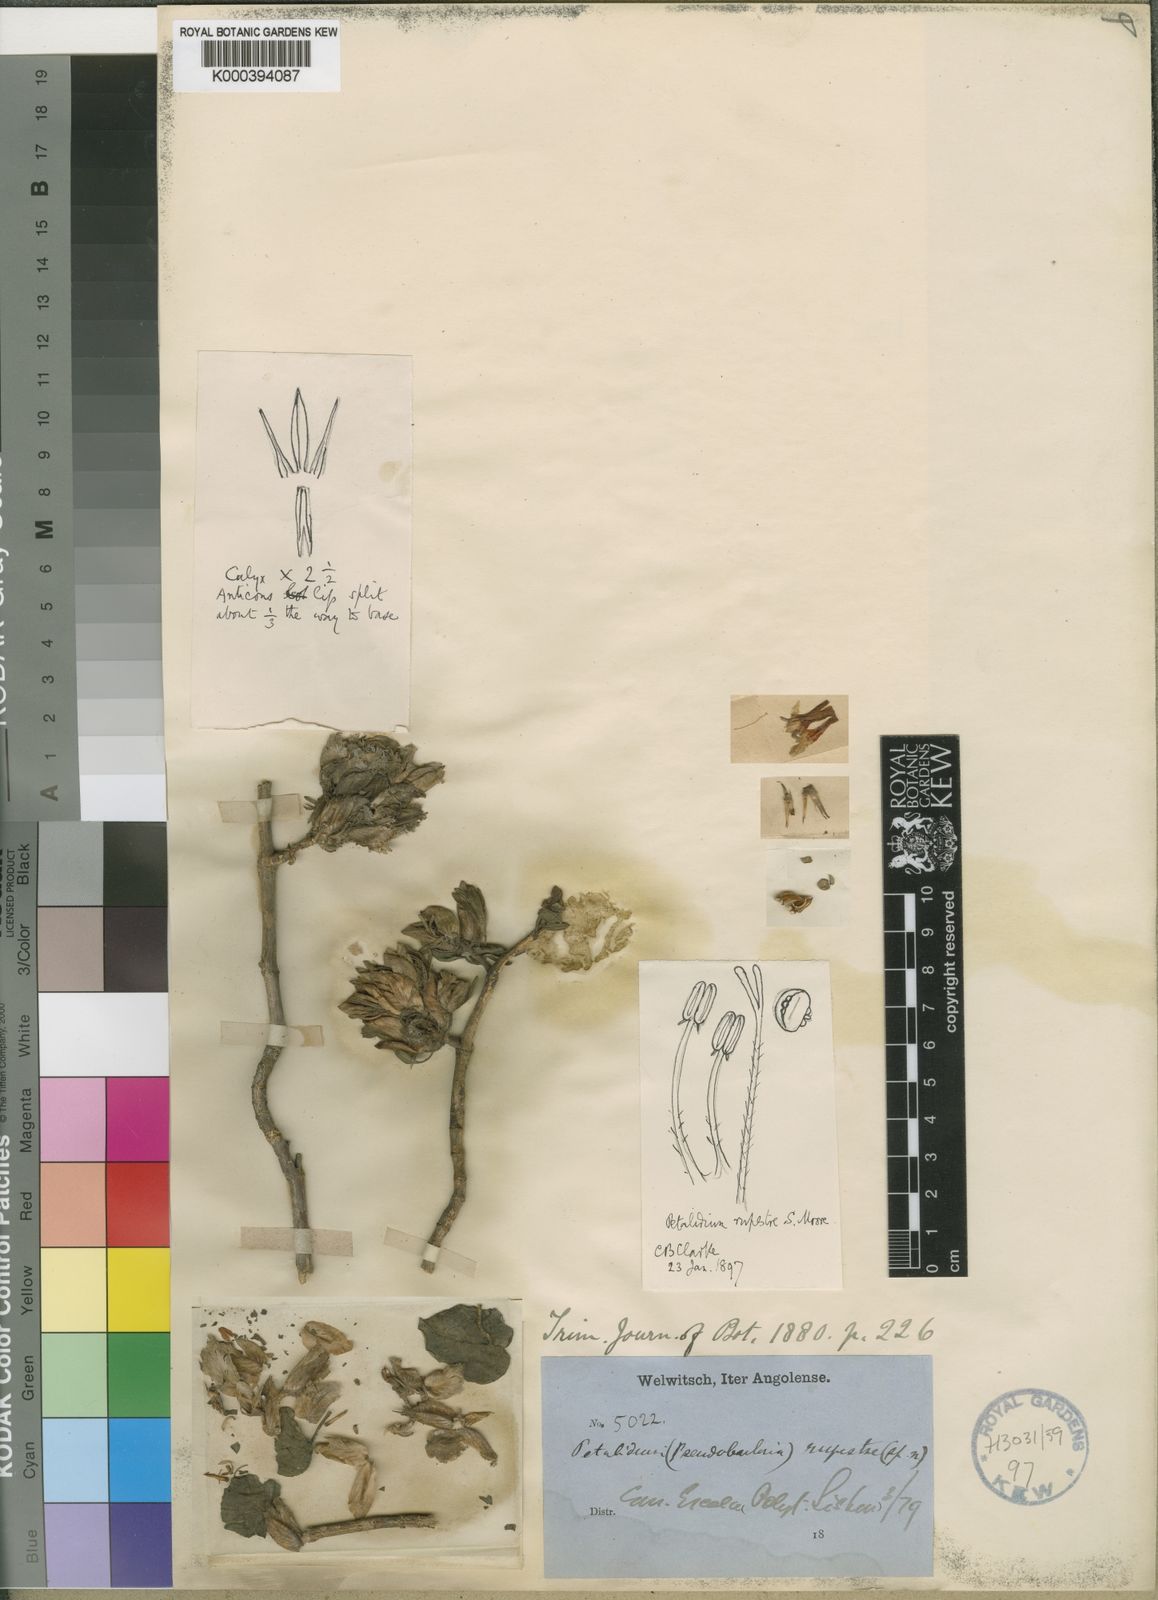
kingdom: Plantae
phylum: Tracheophyta
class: Magnoliopsida
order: Lamiales
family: Acanthaceae
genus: Petalidium
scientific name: Petalidium rupestre
